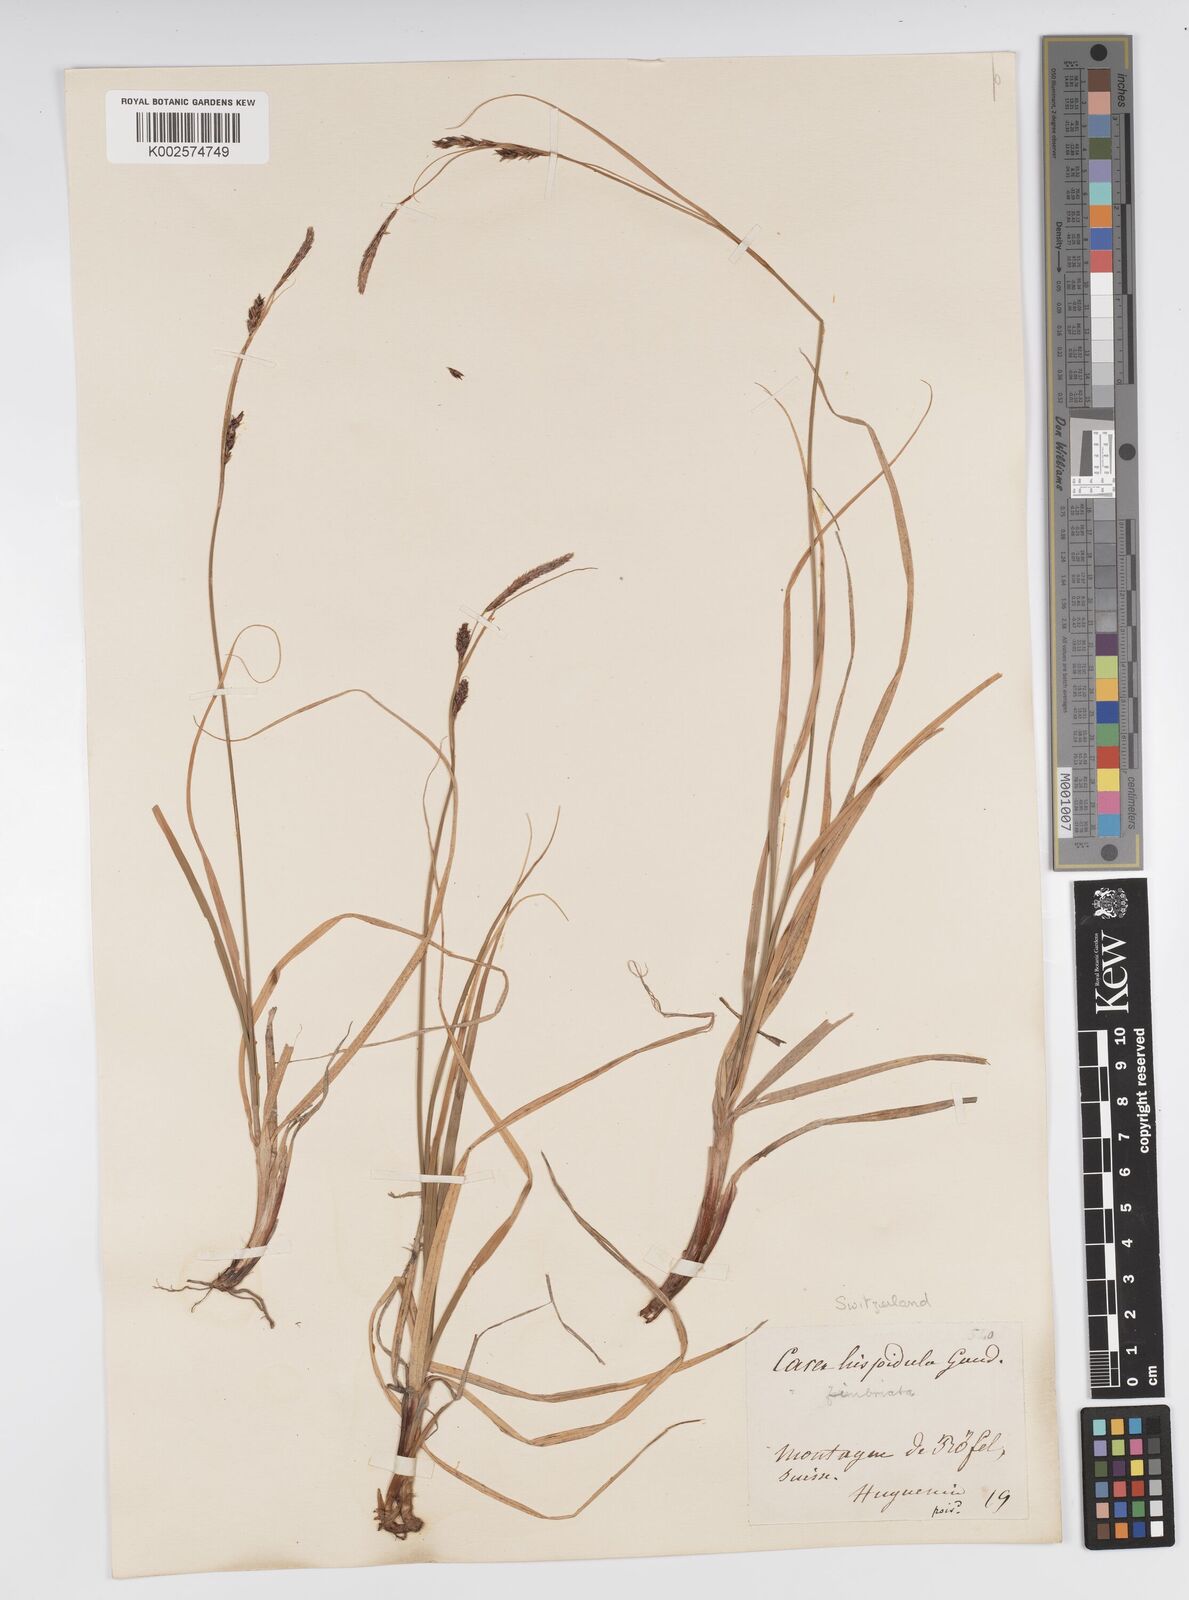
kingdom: Plantae
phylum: Tracheophyta
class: Liliopsida
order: Poales
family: Cyperaceae
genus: Carex
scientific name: Carex fimbriata
